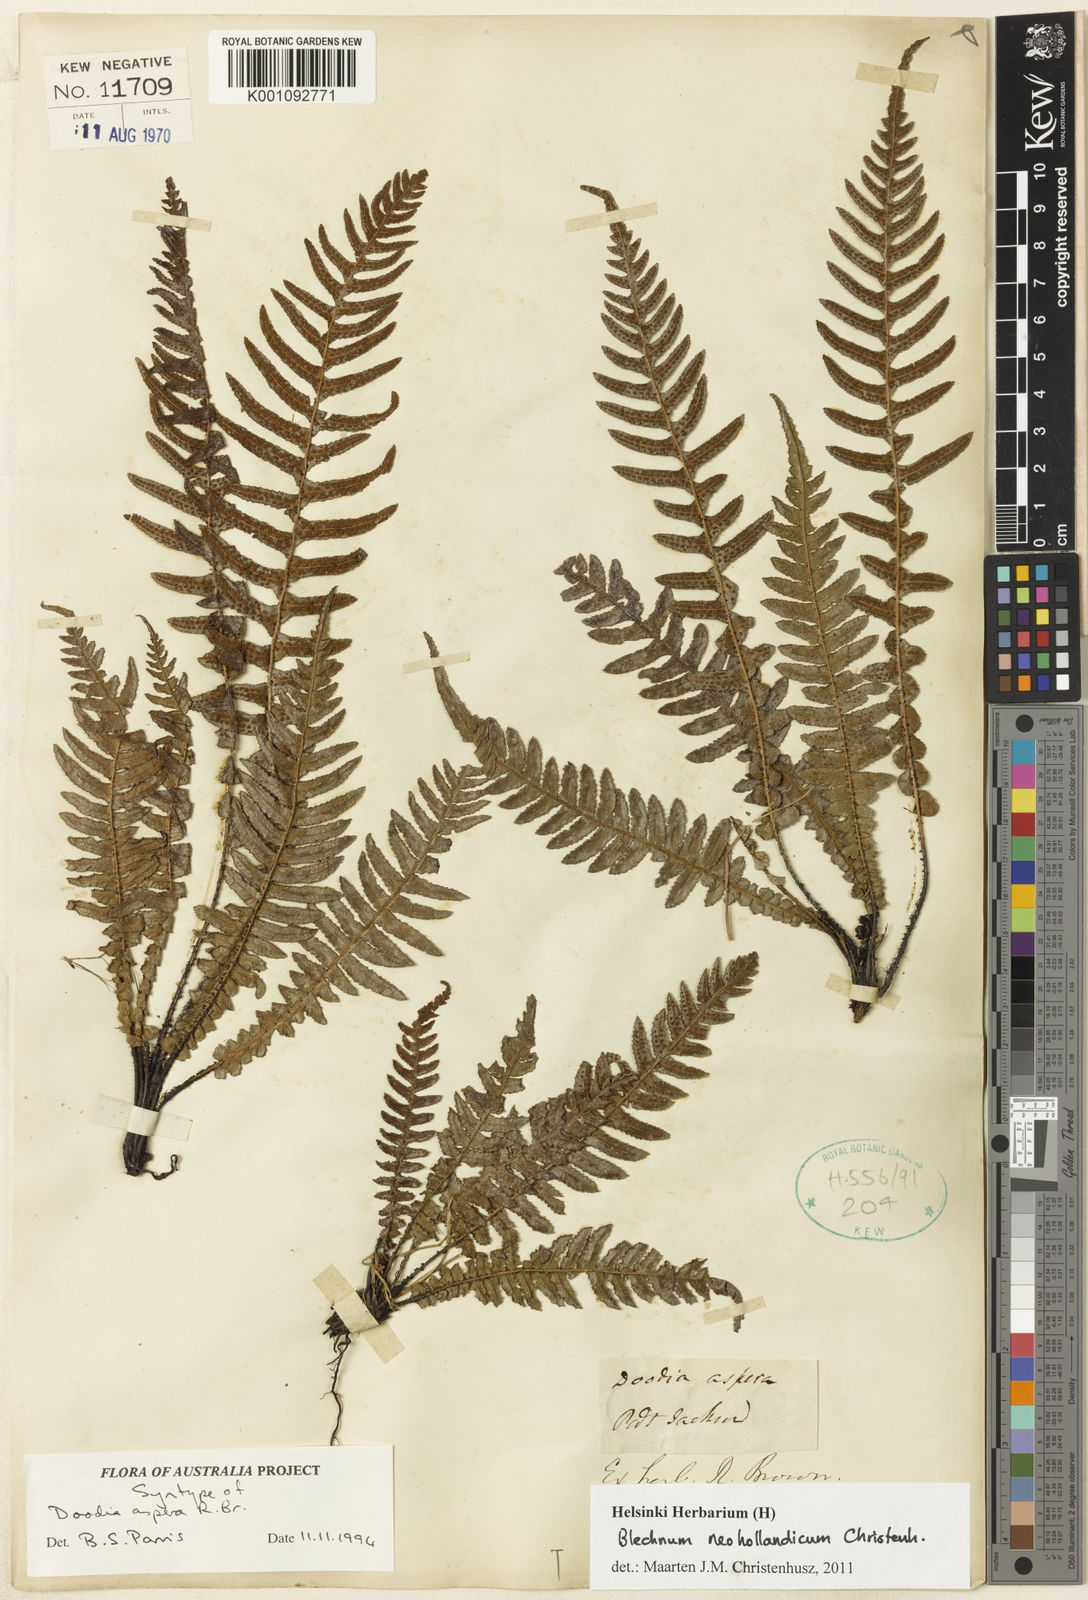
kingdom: Plantae
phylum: Tracheophyta
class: Polypodiopsida
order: Polypodiales
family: Blechnaceae
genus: Doodia
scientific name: Doodia aspera
